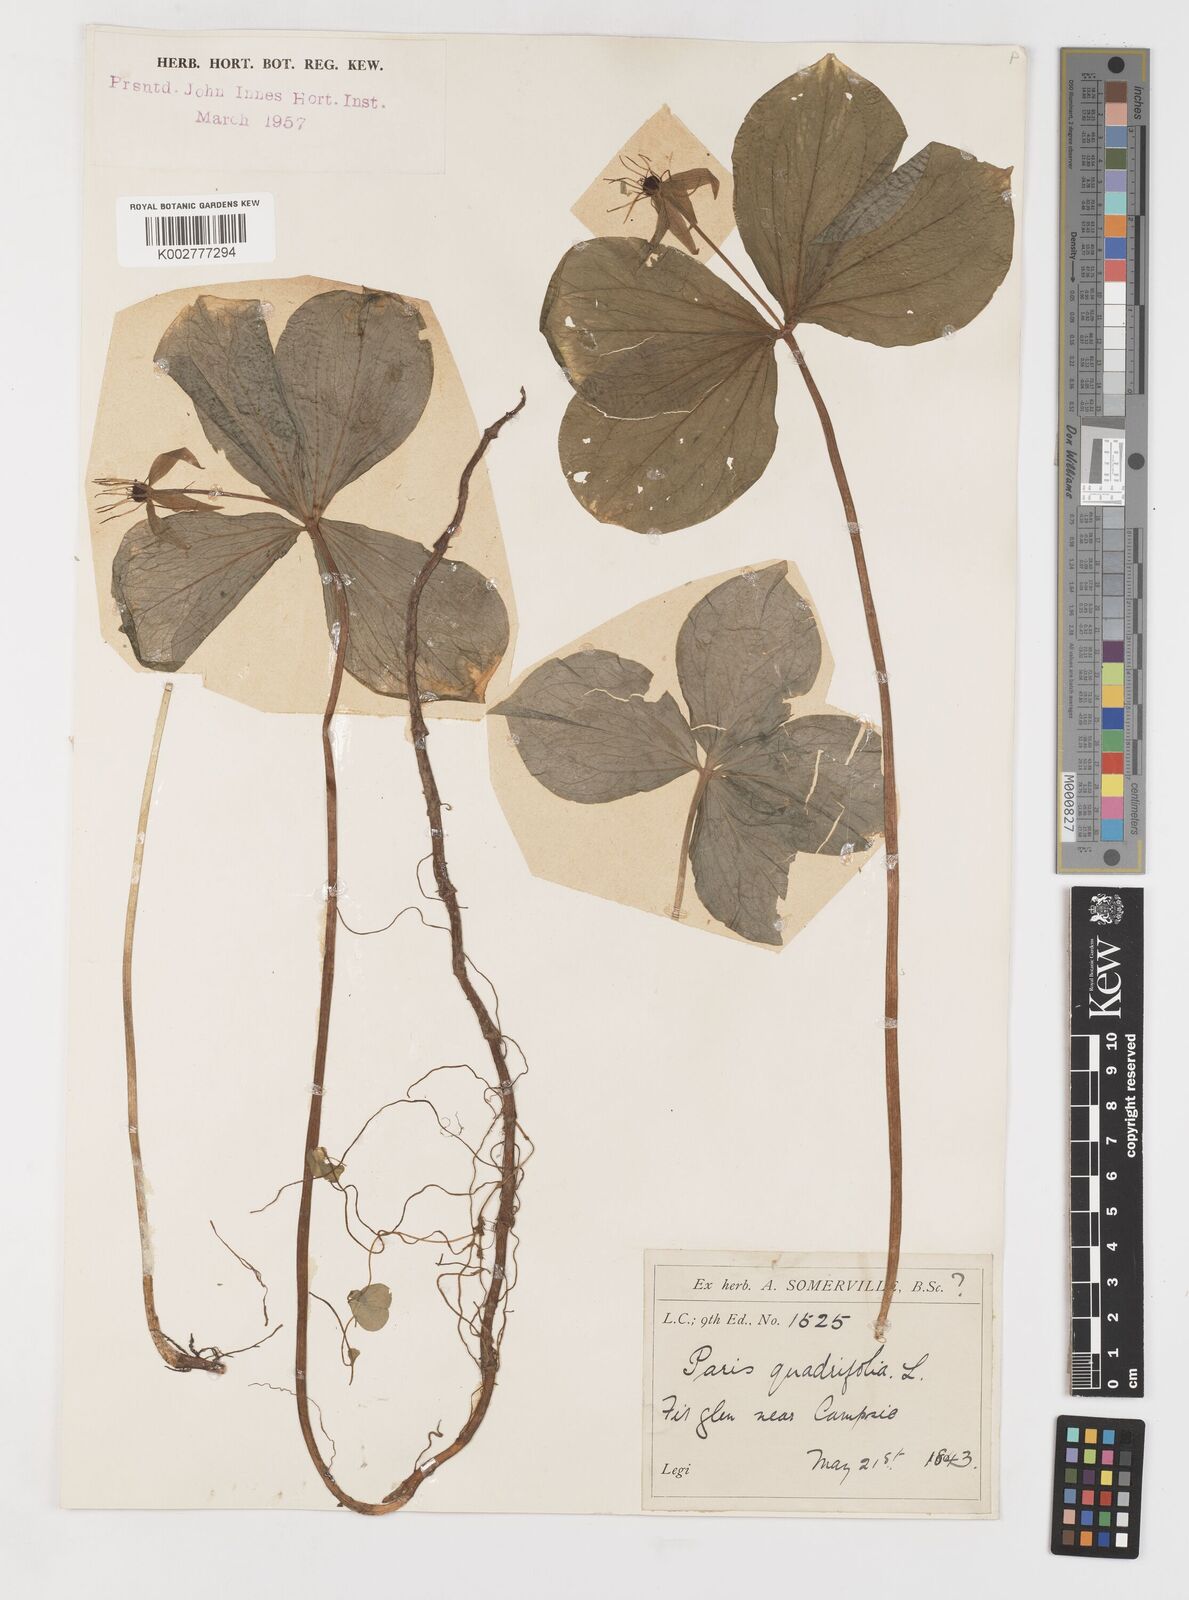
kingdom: Plantae
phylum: Tracheophyta
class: Liliopsida
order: Liliales
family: Melanthiaceae
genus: Paris
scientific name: Paris quadrifolia
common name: Herb-paris
